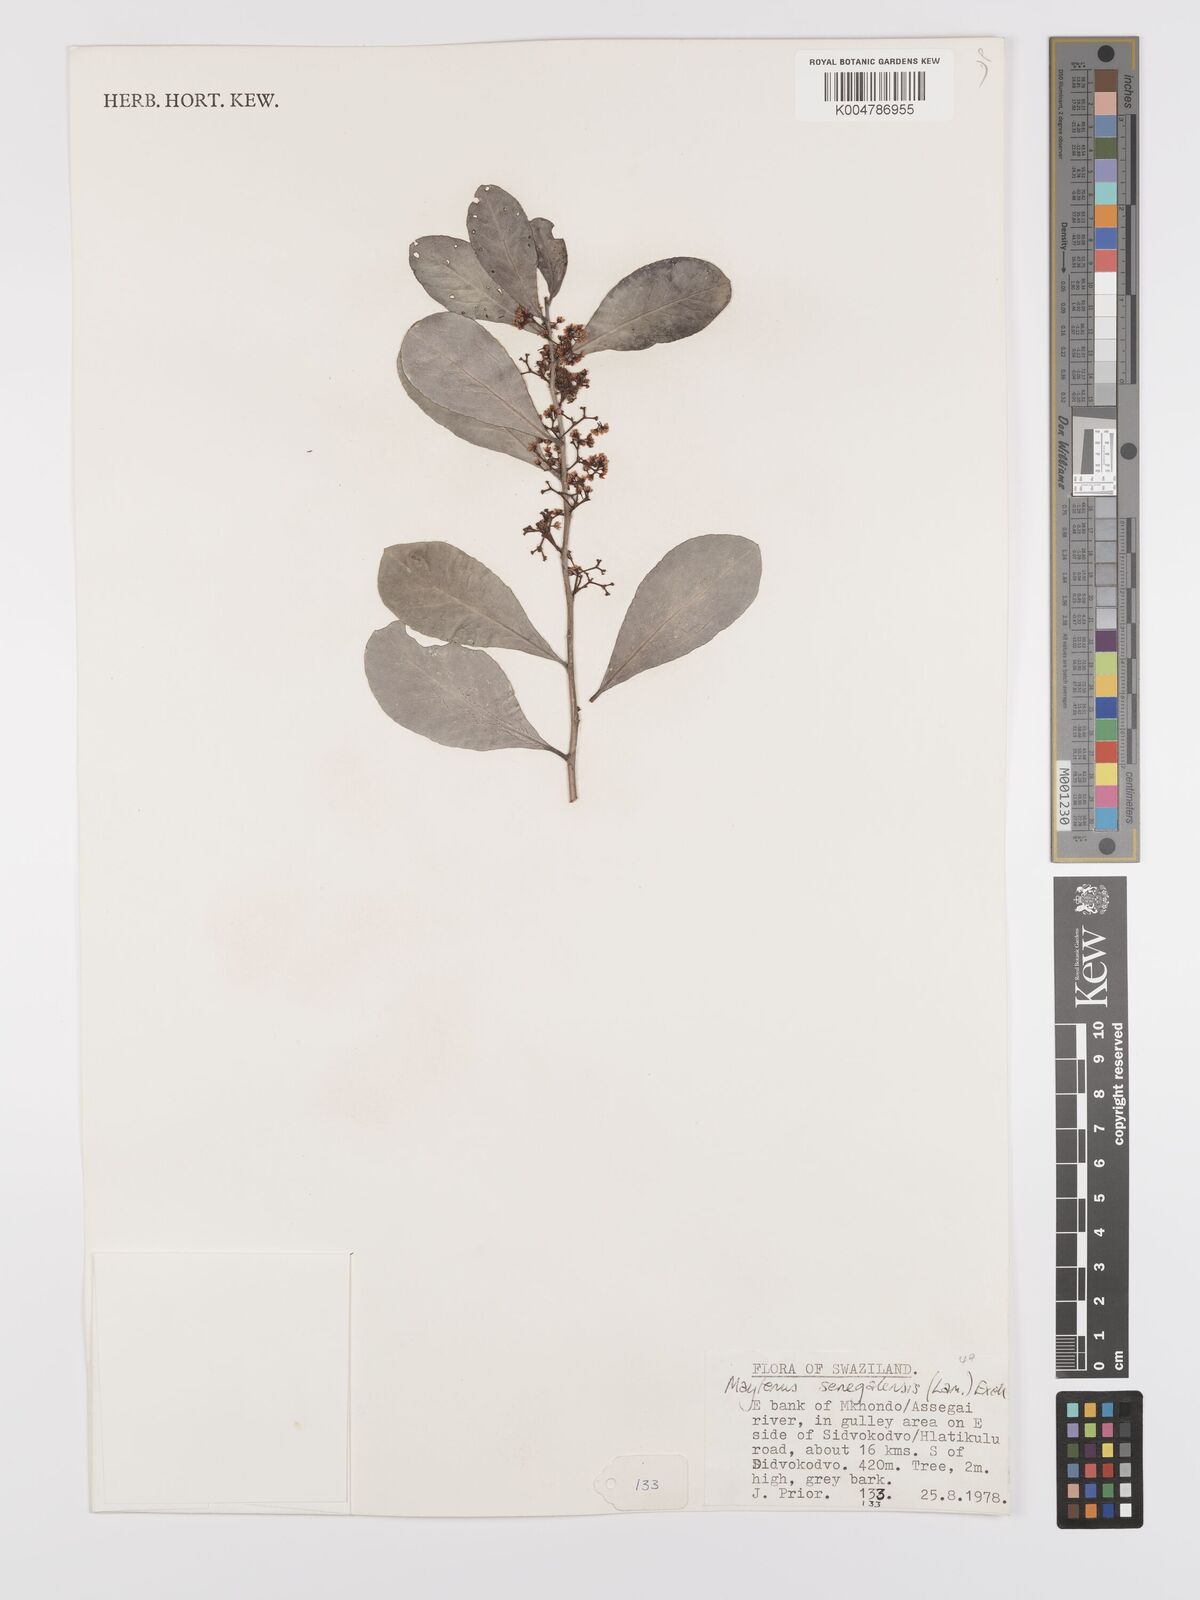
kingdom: Plantae
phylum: Tracheophyta
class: Magnoliopsida
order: Celastrales
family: Celastraceae
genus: Gymnosporia
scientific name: Gymnosporia senegalensis
